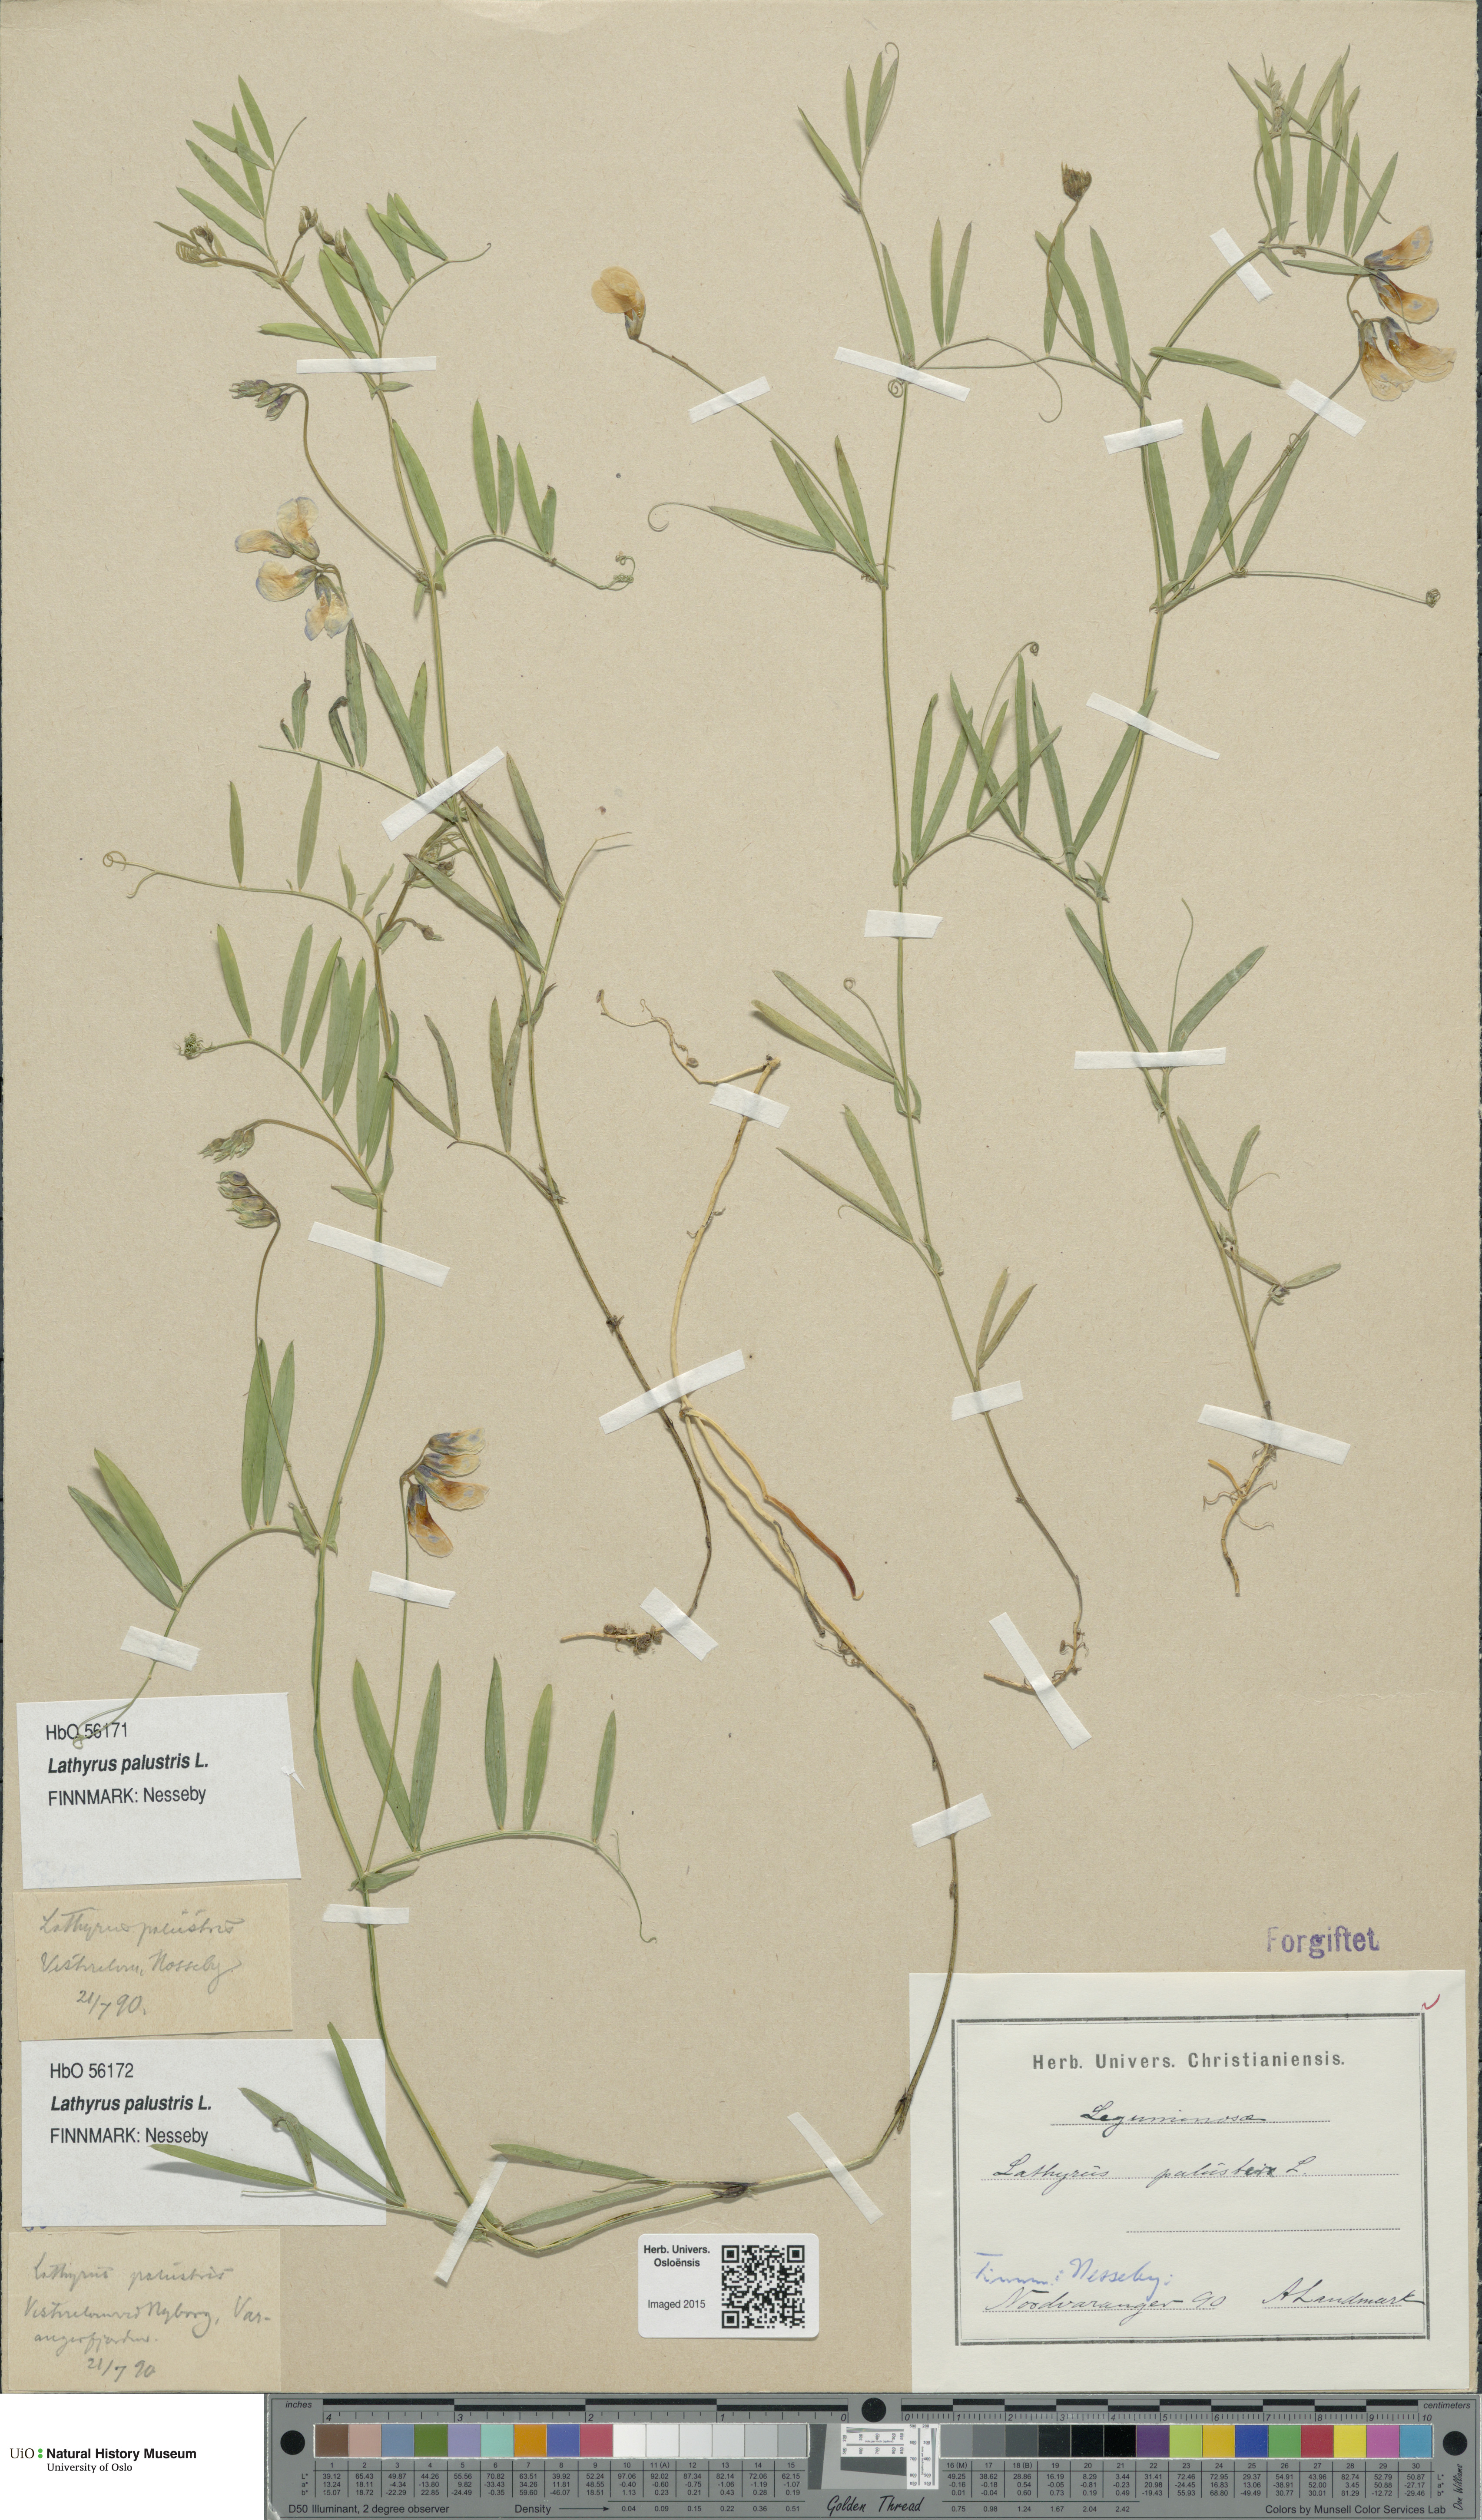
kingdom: Plantae
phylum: Tracheophyta
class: Magnoliopsida
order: Fabales
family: Fabaceae
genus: Lathyrus
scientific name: Lathyrus palustris
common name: Marsh pea
